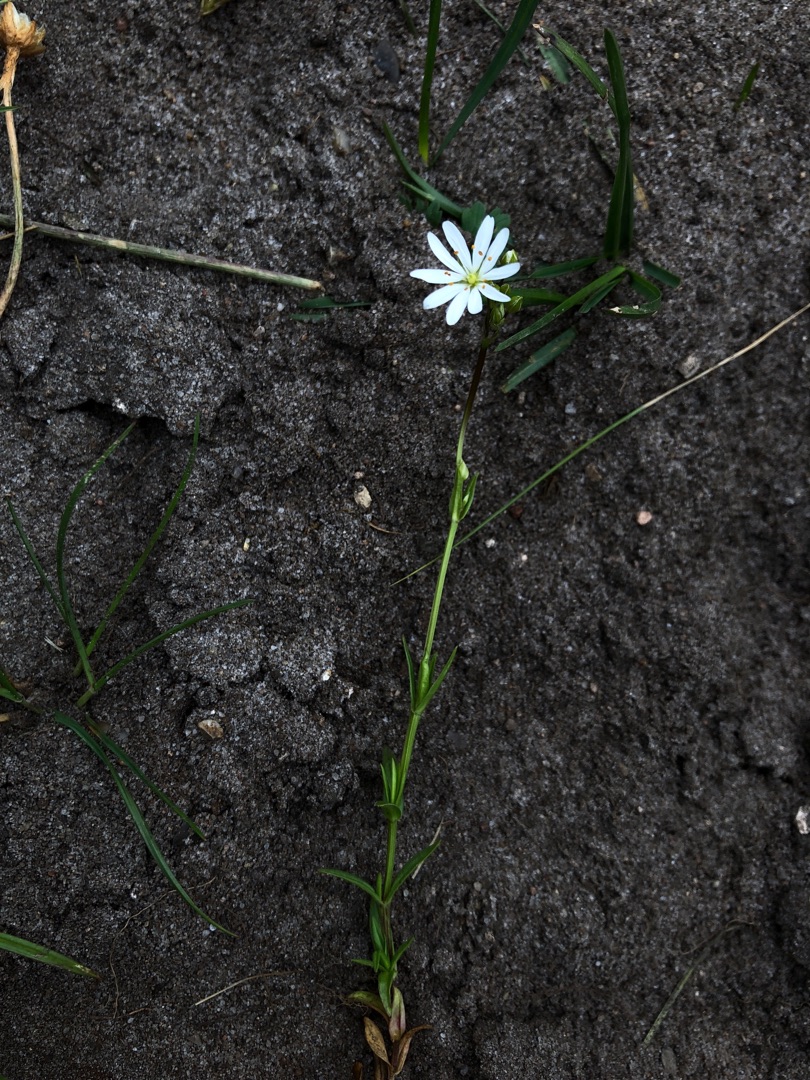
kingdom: Plantae
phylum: Tracheophyta
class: Magnoliopsida
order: Caryophyllales
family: Caryophyllaceae
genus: Stellaria
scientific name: Stellaria graminea
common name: Græsbladet fladstjerne
